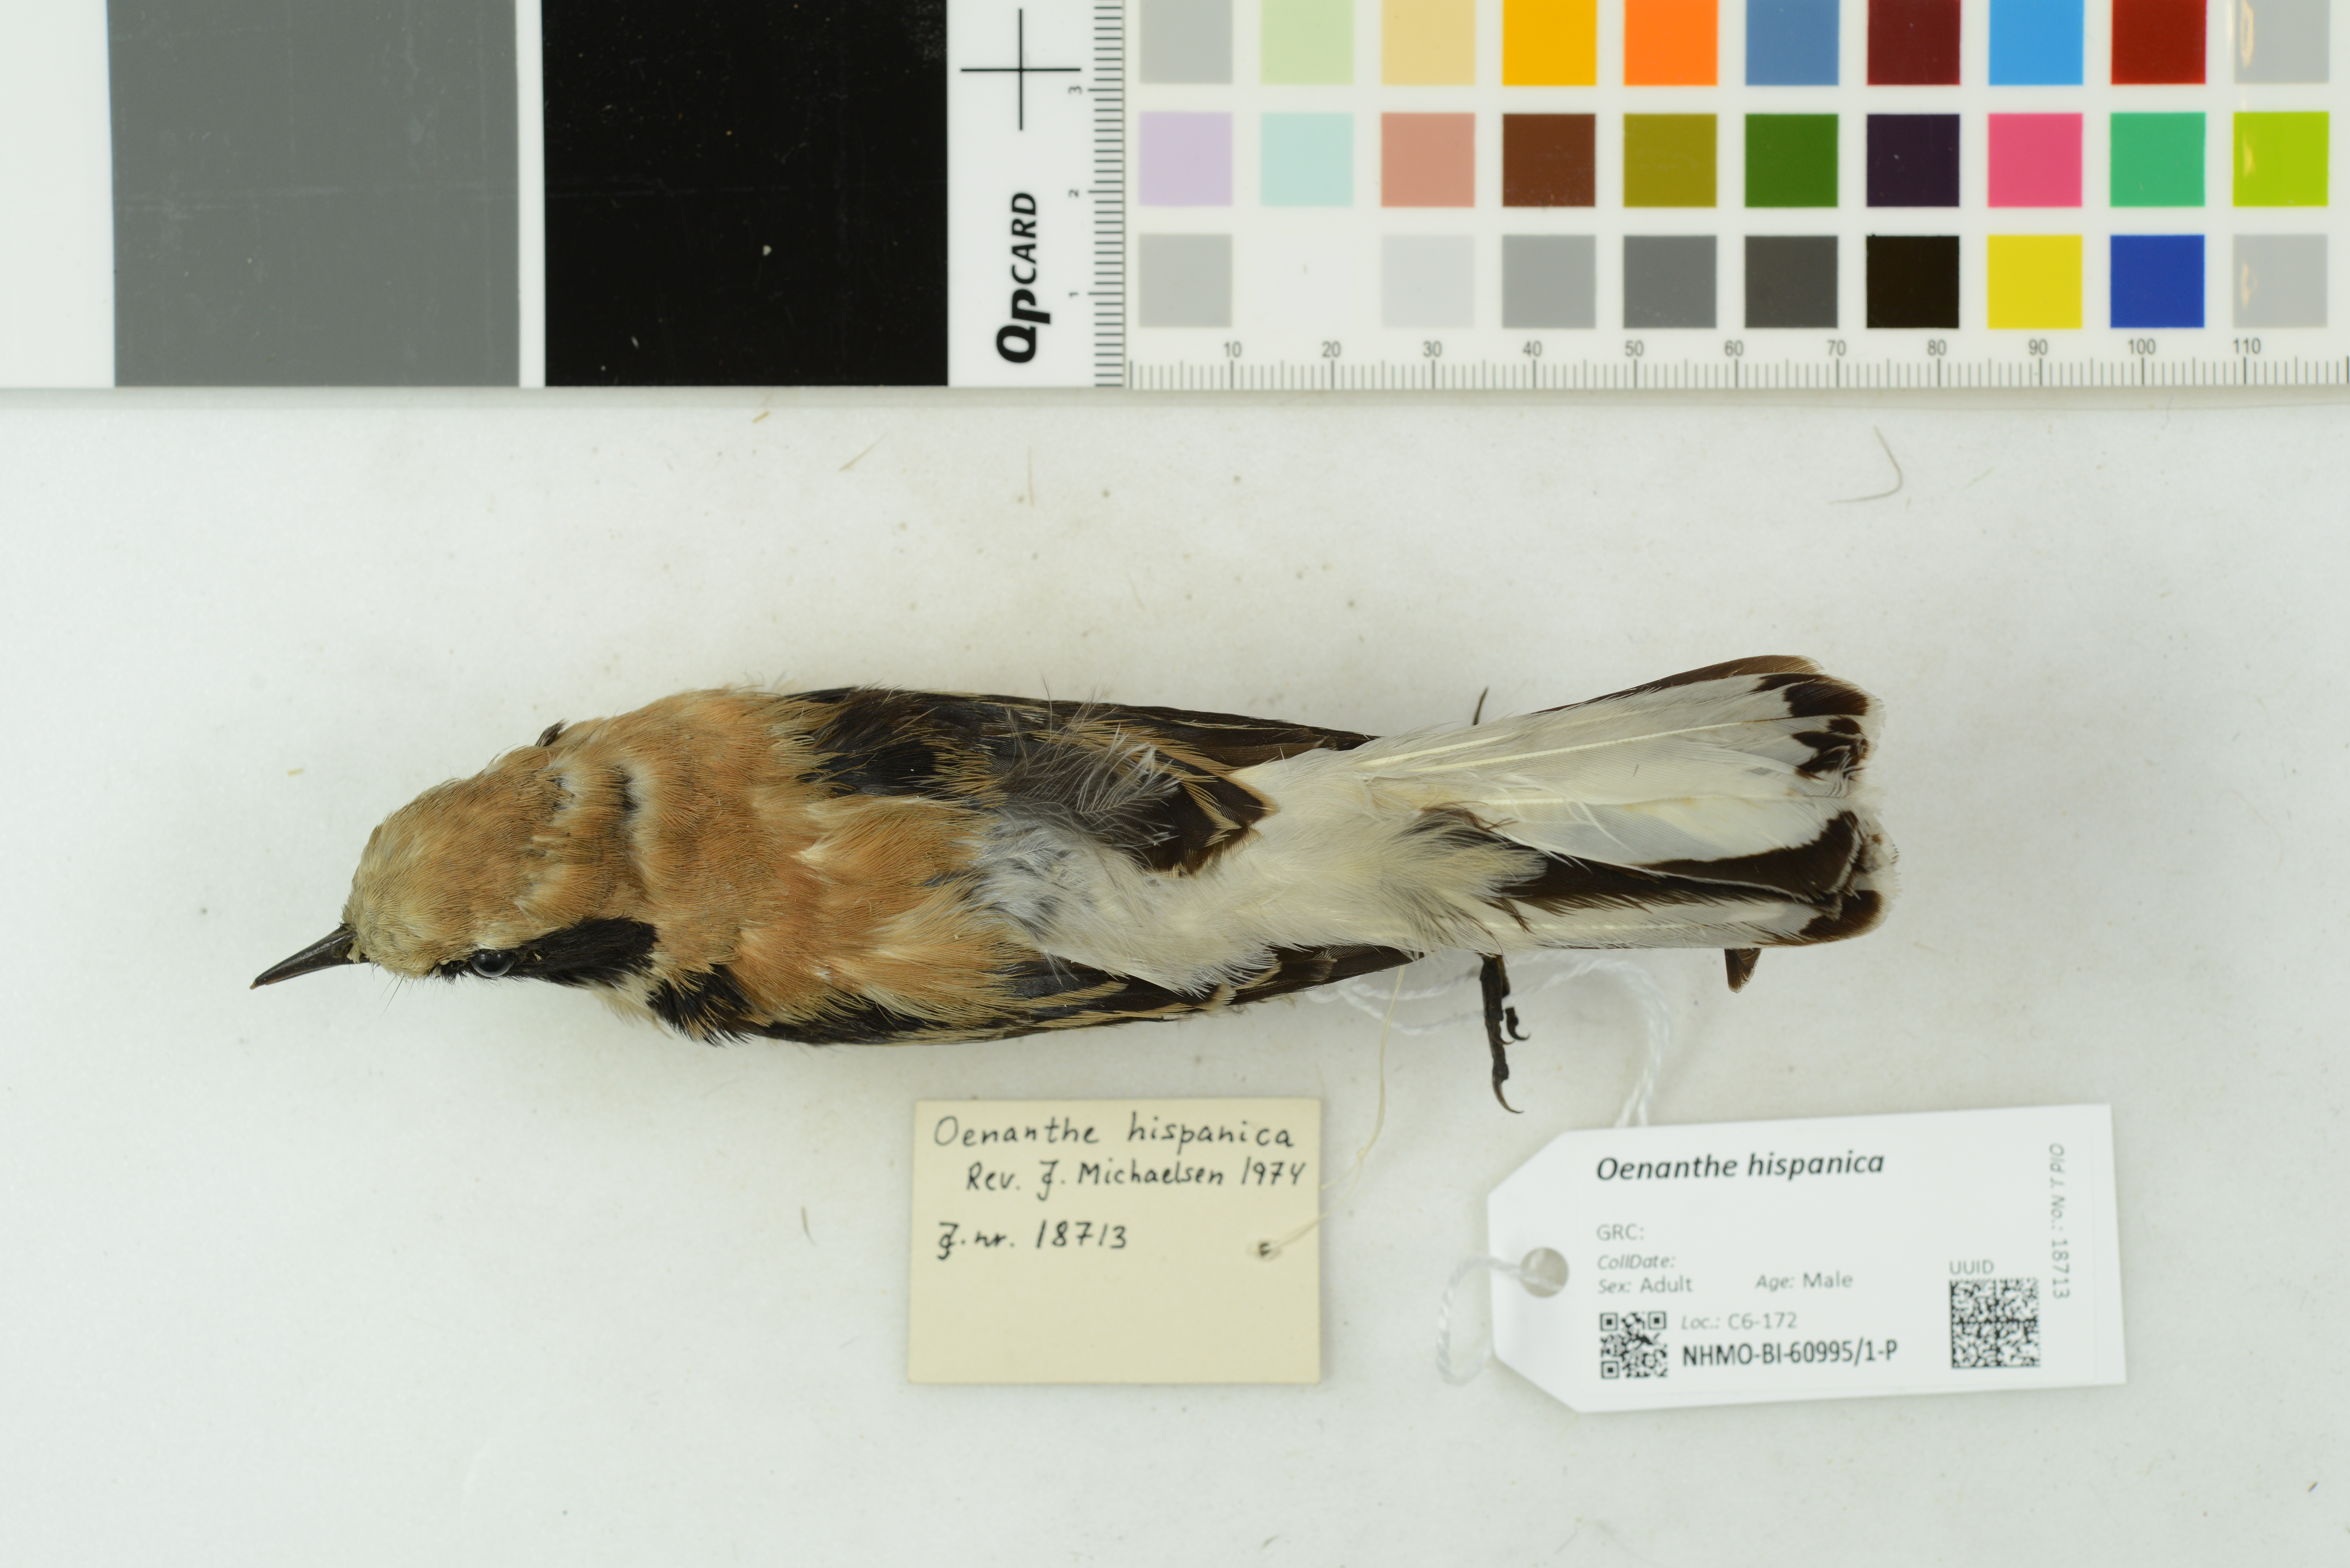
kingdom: Animalia
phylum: Chordata
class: Aves
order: Passeriformes
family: Muscicapidae
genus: Oenanthe
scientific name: Oenanthe hispanica
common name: Black-eared wheatear
